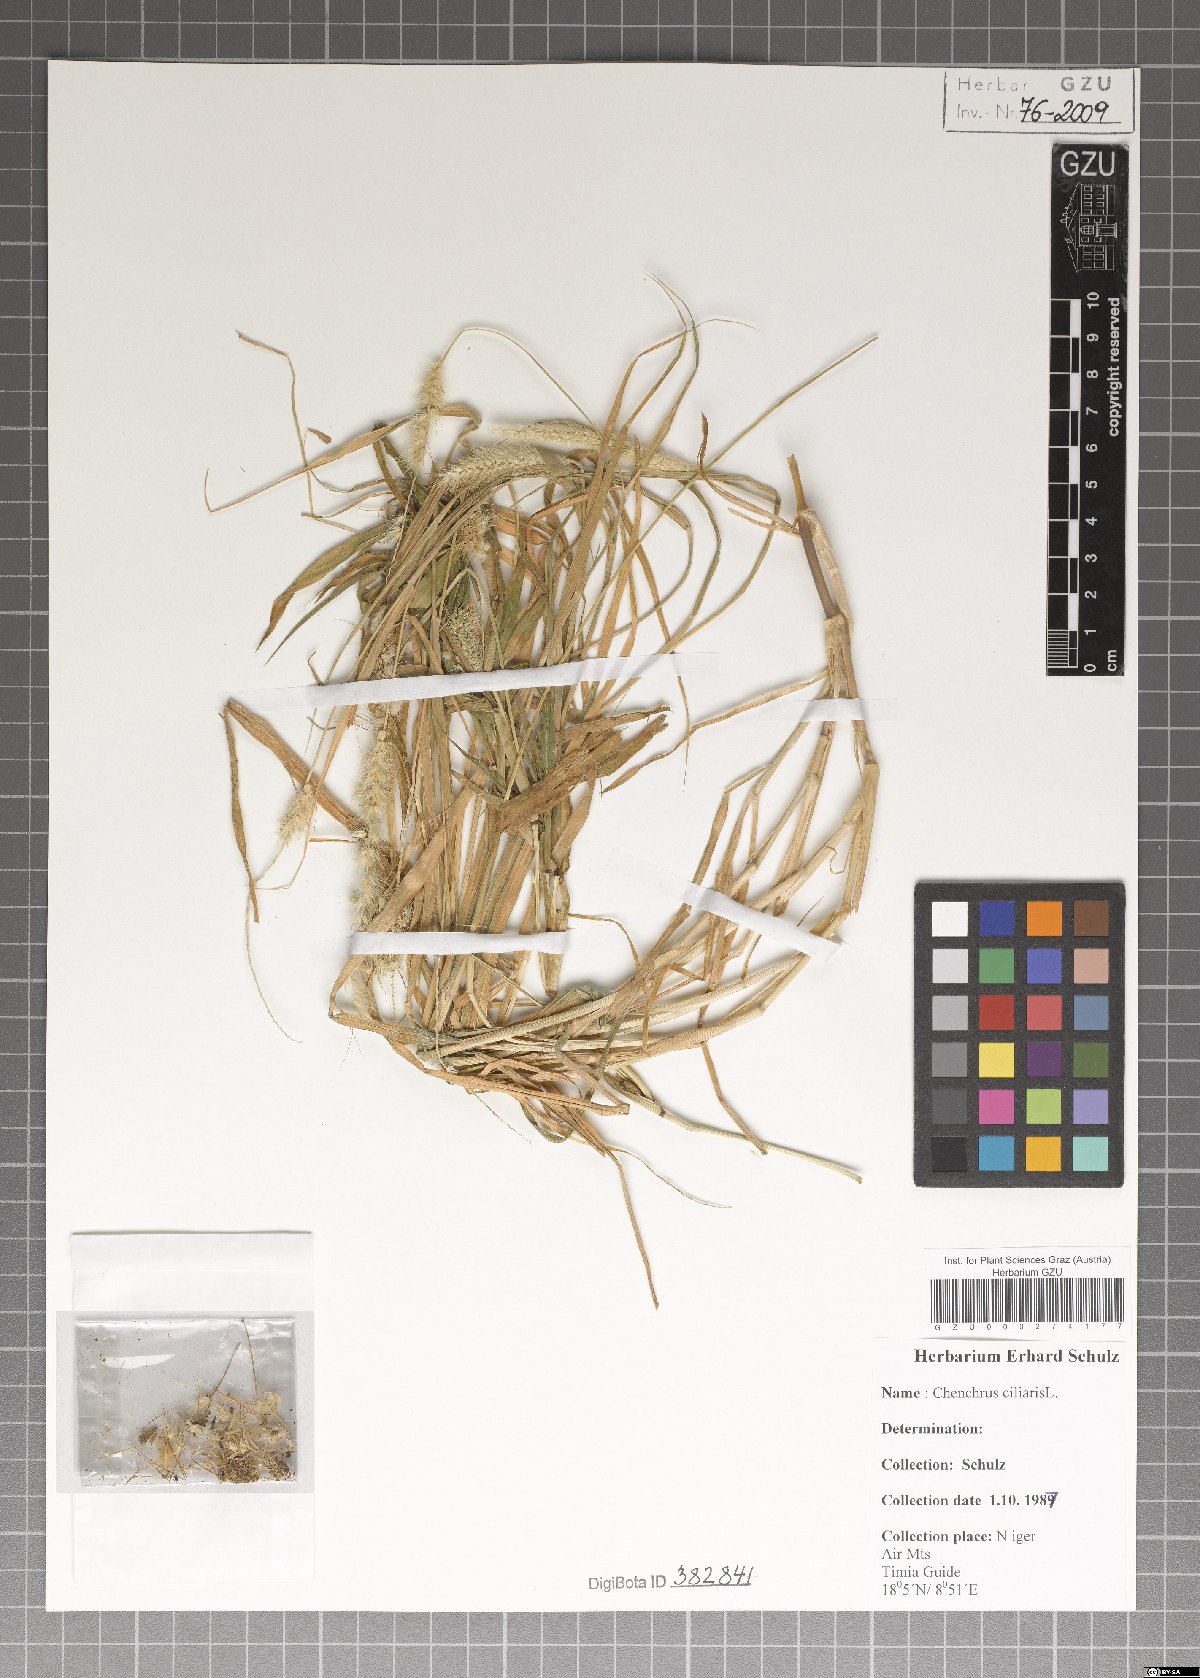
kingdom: Plantae
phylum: Tracheophyta
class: Liliopsida
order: Poales
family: Poaceae
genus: Cenchrus
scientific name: Cenchrus ciliaris
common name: Buffelgrass
